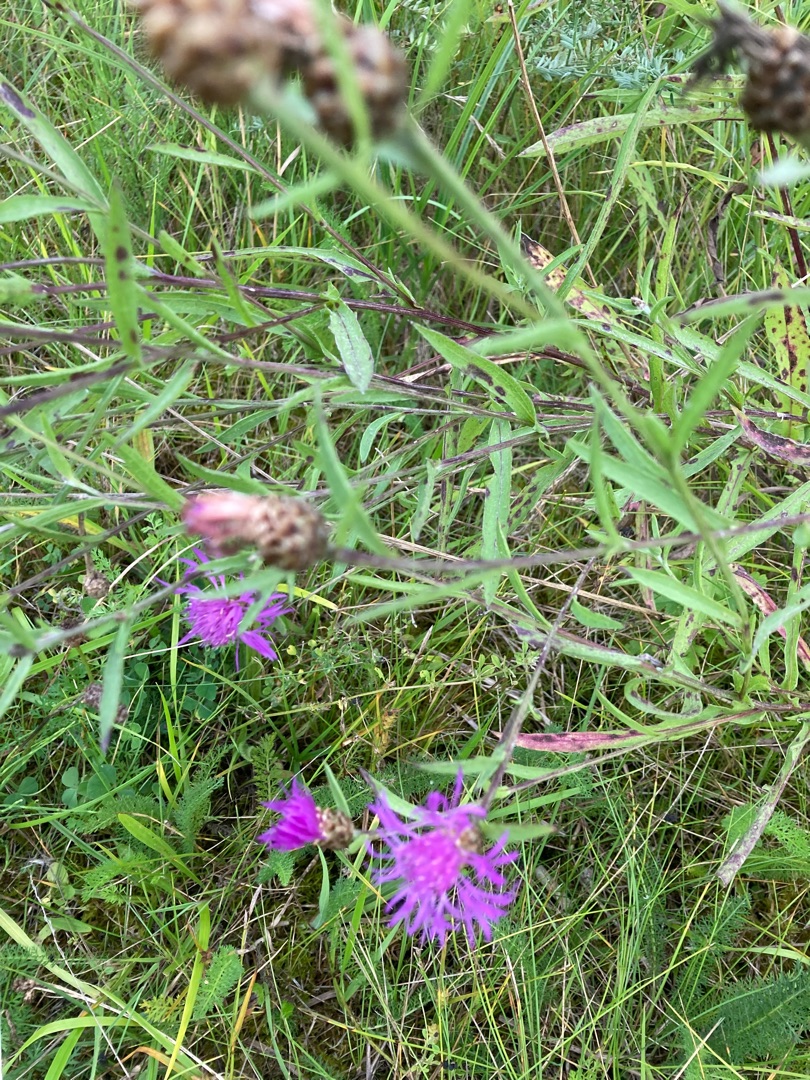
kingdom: Plantae
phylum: Tracheophyta
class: Magnoliopsida
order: Asterales
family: Asteraceae
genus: Centaurea
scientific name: Centaurea jacea
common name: Almindelig knopurt
